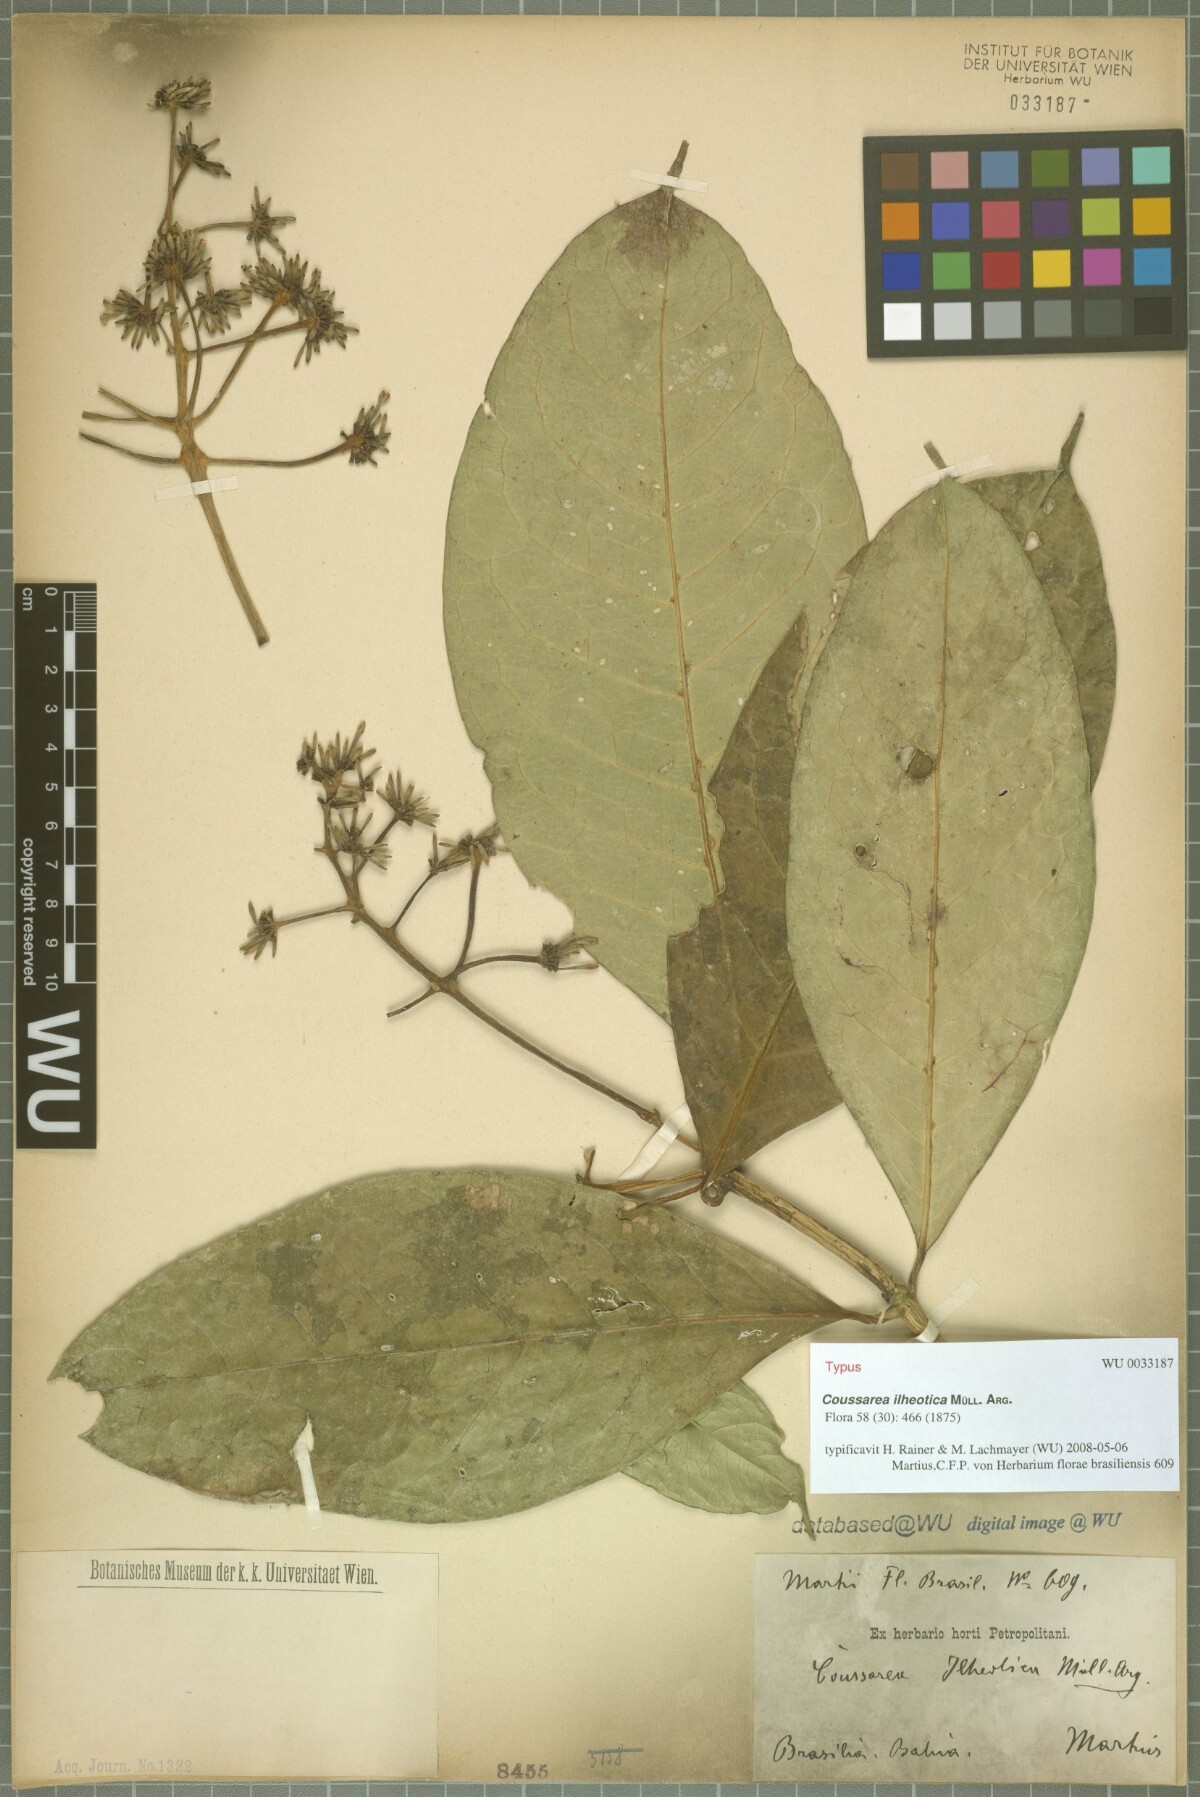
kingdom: Plantae
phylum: Tracheophyta
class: Magnoliopsida
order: Gentianales
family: Rubiaceae
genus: Coussarea
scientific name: Coussarea ilheotica
